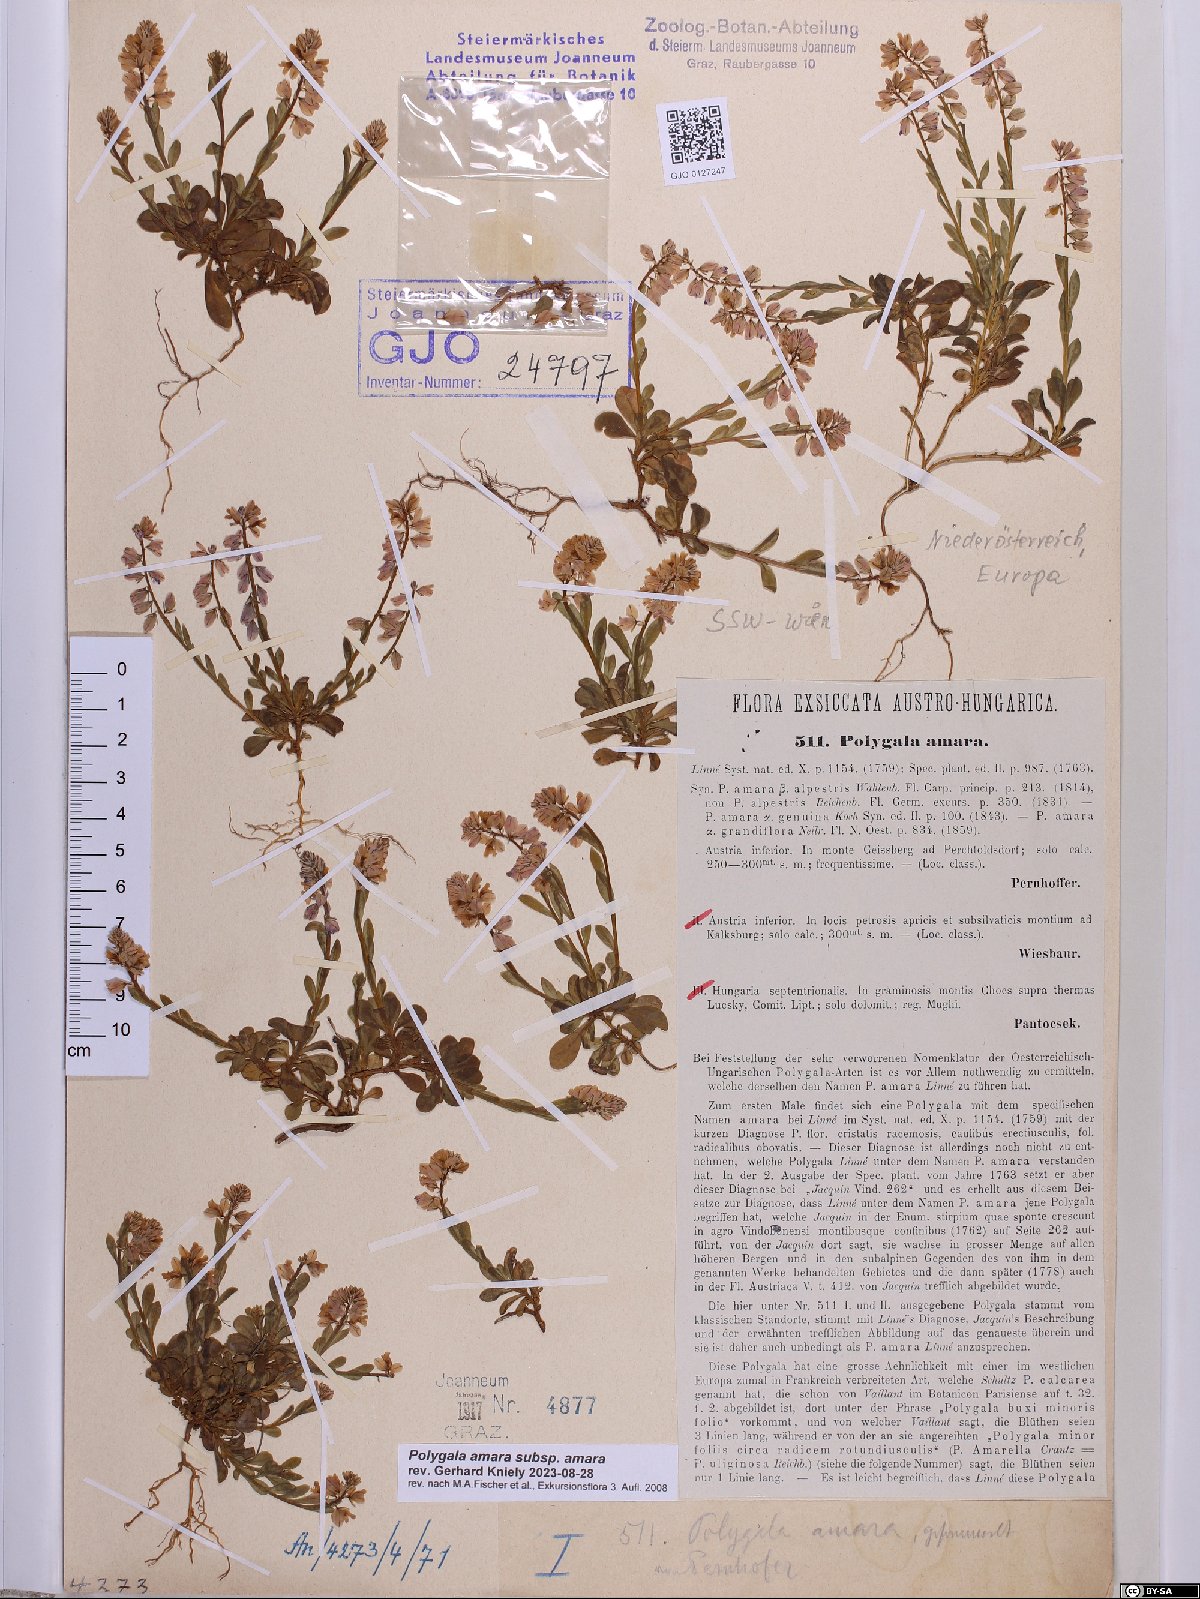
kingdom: Plantae
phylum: Tracheophyta
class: Magnoliopsida
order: Fabales
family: Polygalaceae
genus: Polygala
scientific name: Polygala amara
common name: Milkwort
